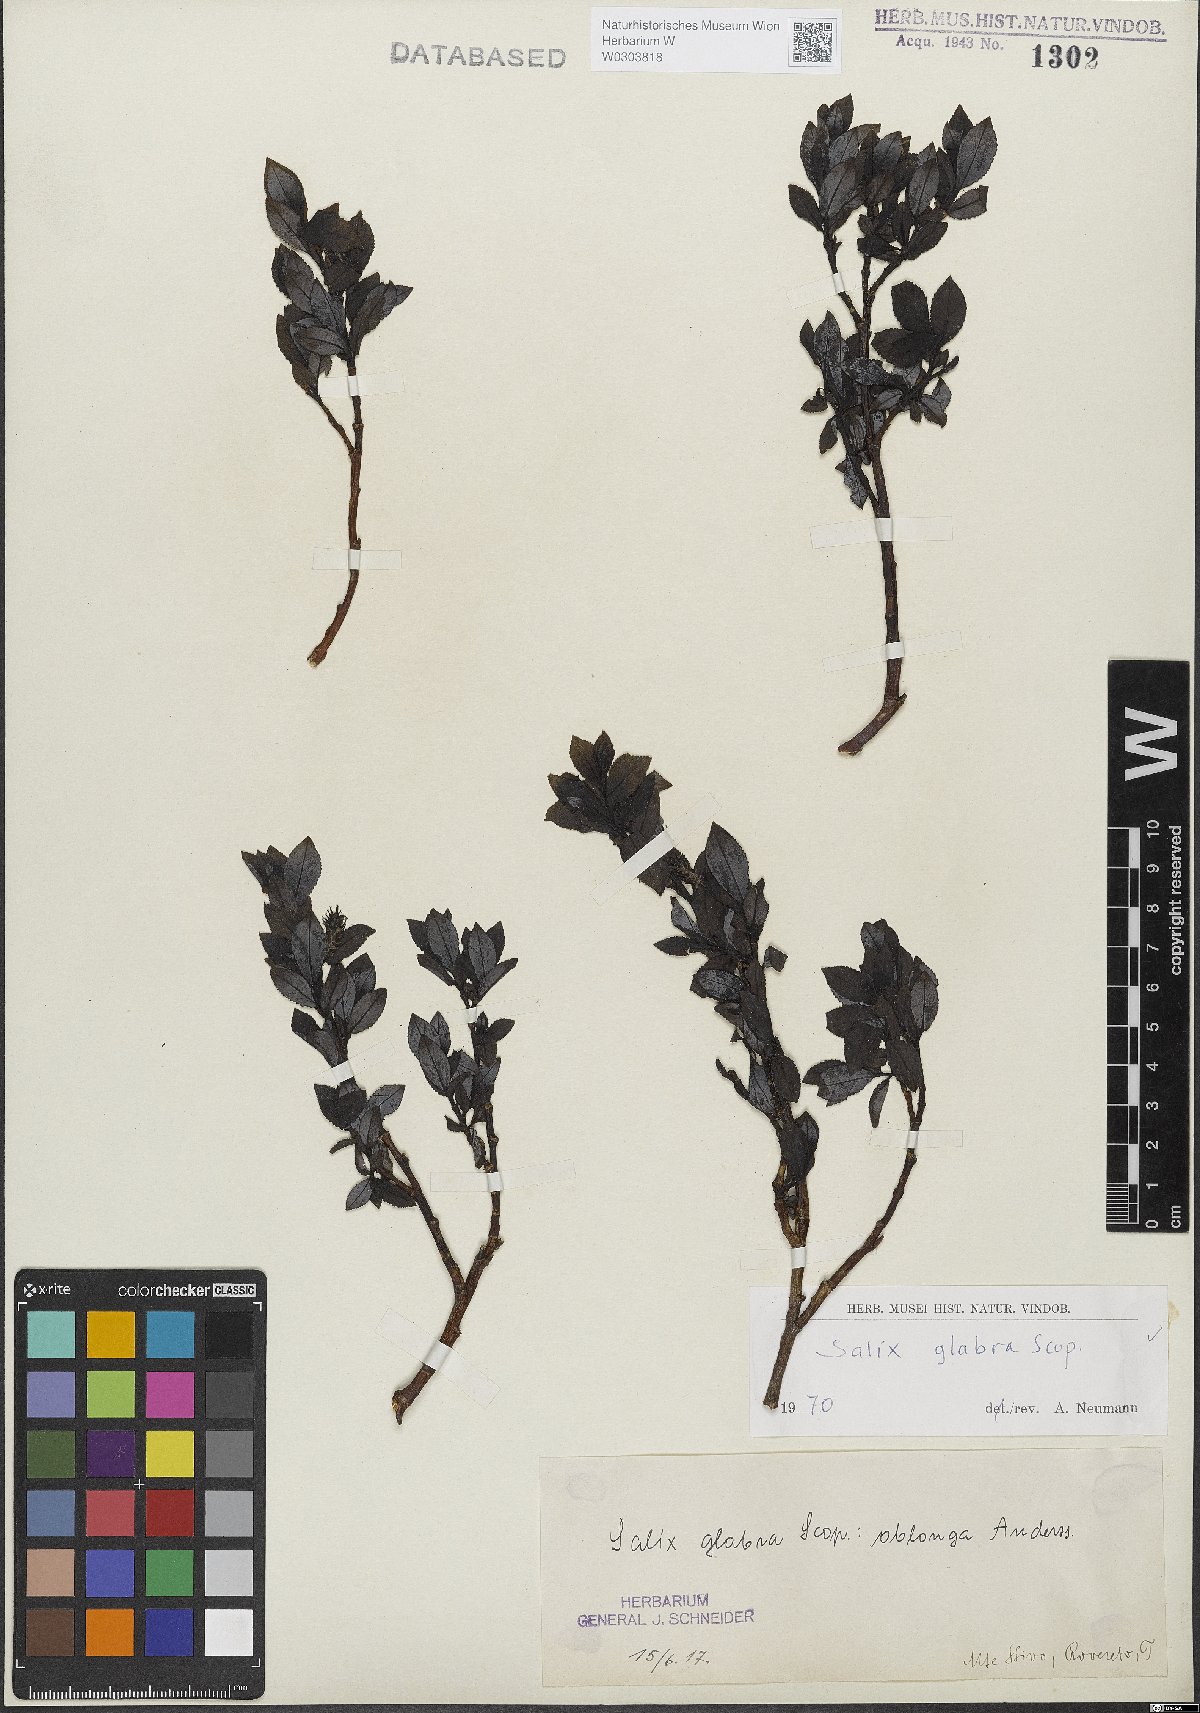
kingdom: Plantae
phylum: Tracheophyta
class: Magnoliopsida
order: Malpighiales
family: Salicaceae
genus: Salix
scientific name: Salix glabra
